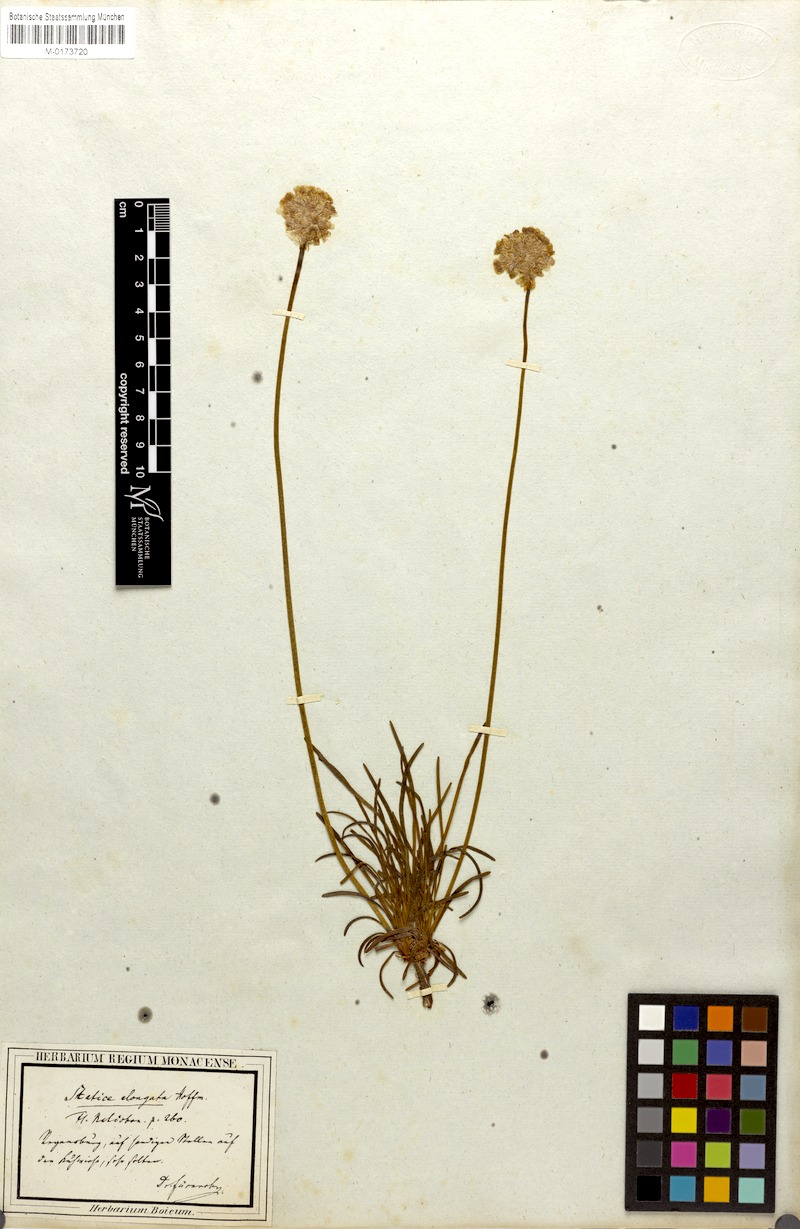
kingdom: Plantae
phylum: Tracheophyta
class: Magnoliopsida
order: Caryophyllales
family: Plumbaginaceae
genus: Armeria
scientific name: Armeria maritima
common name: Thrift
